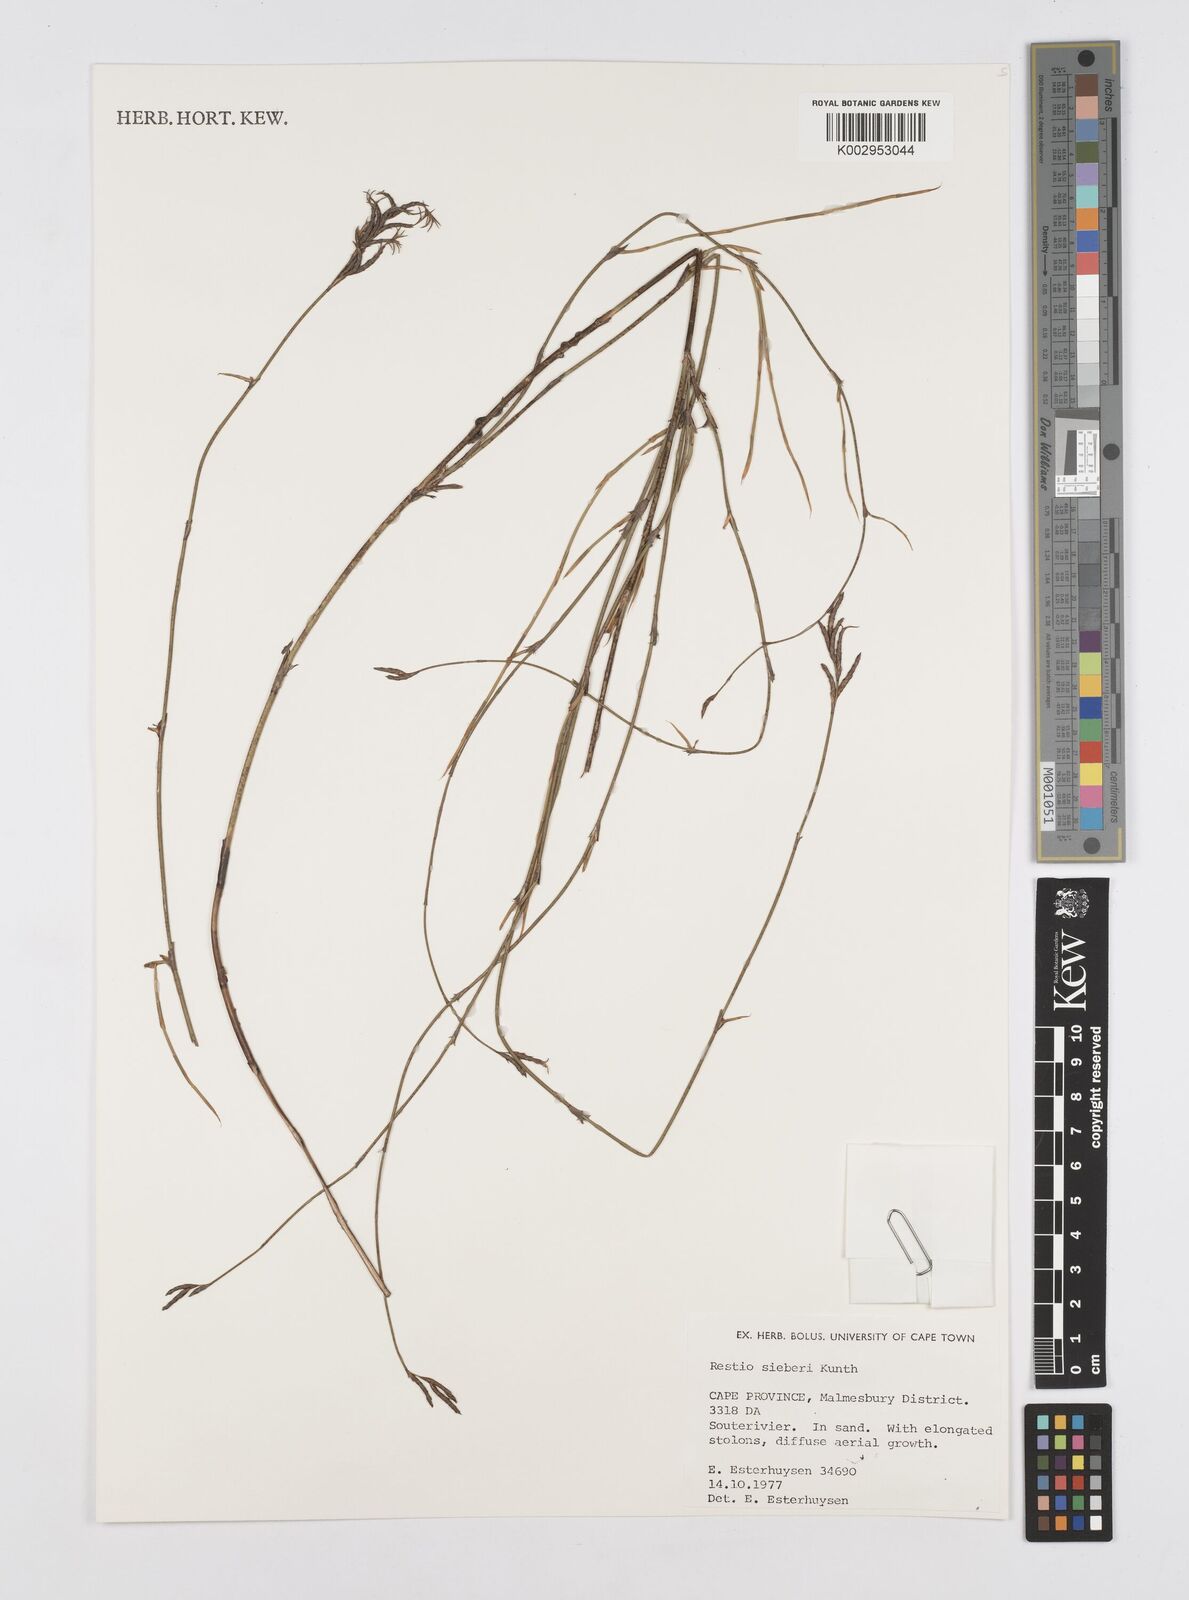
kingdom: Plantae
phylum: Tracheophyta
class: Liliopsida
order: Poales
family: Restionaceae
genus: Restio
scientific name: Restio sieberi
